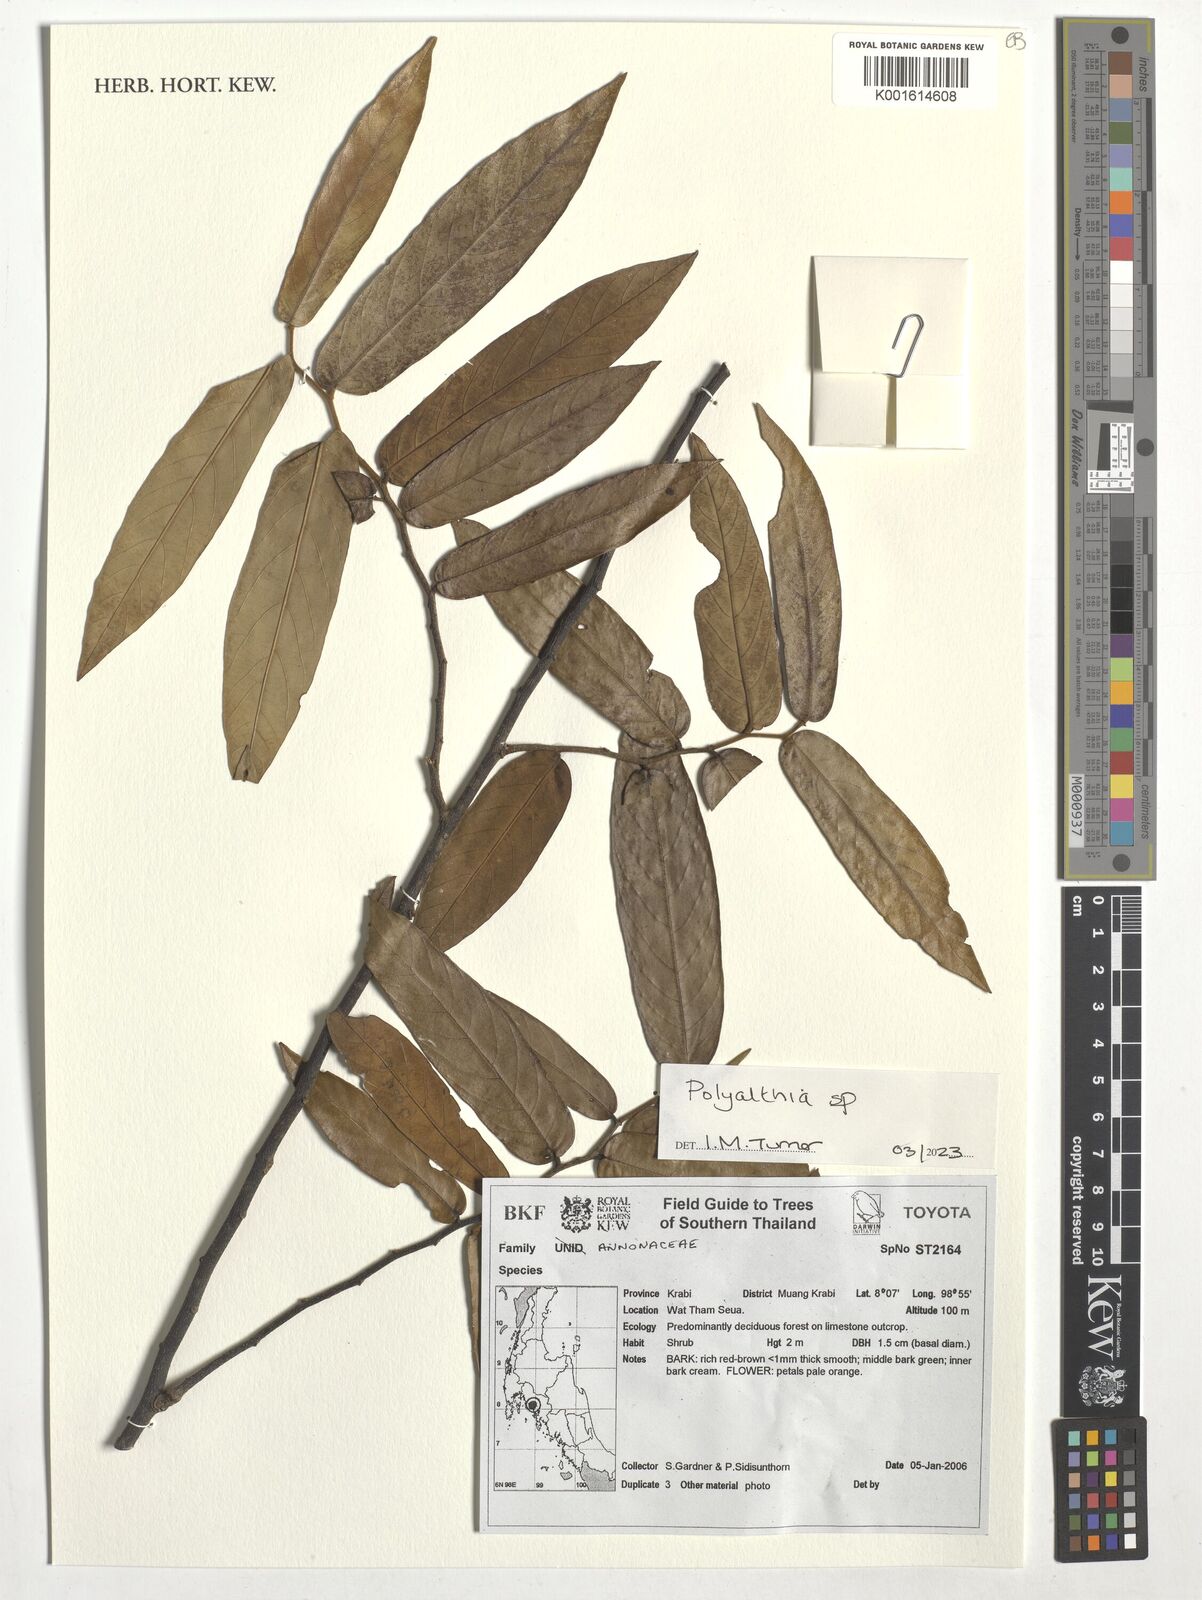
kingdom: Plantae
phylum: Tracheophyta
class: Magnoliopsida
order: Magnoliales
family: Annonaceae
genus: Polyalthia
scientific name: Polyalthia
